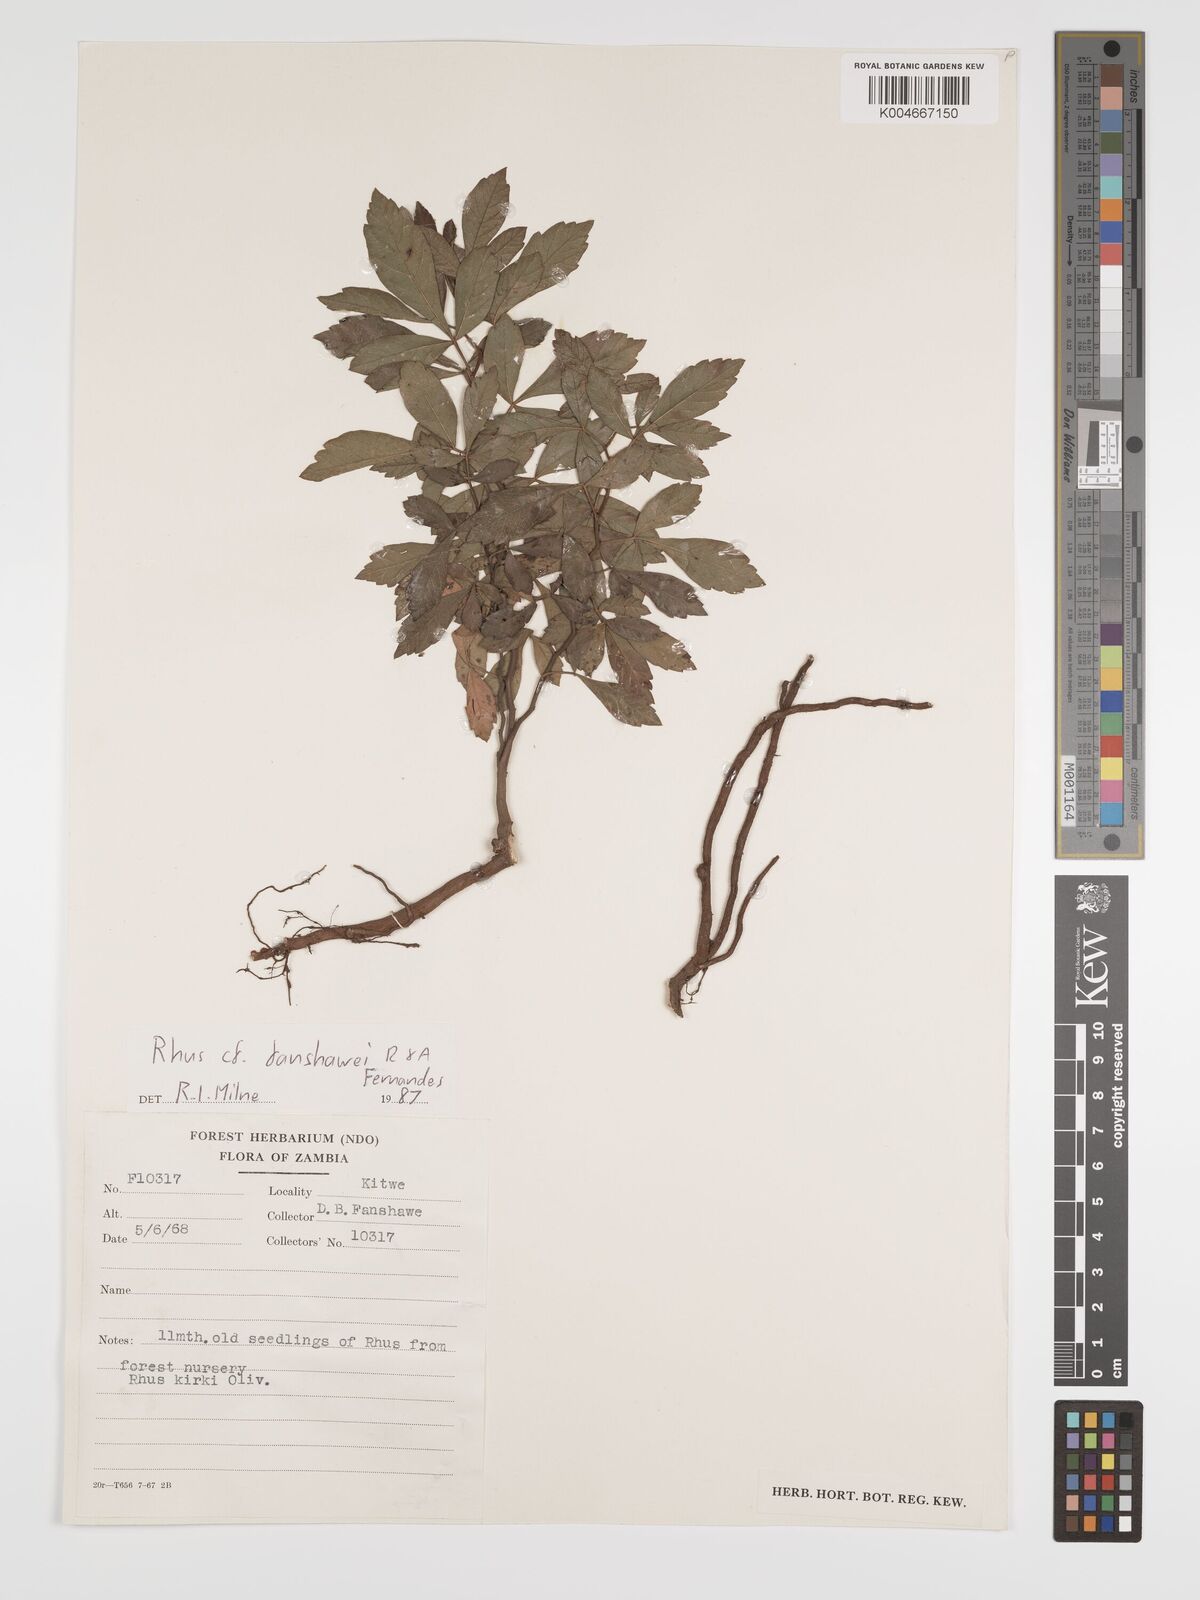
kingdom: Plantae
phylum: Tracheophyta
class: Magnoliopsida
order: Sapindales
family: Anacardiaceae
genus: Searsia
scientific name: Searsia magalismontana
